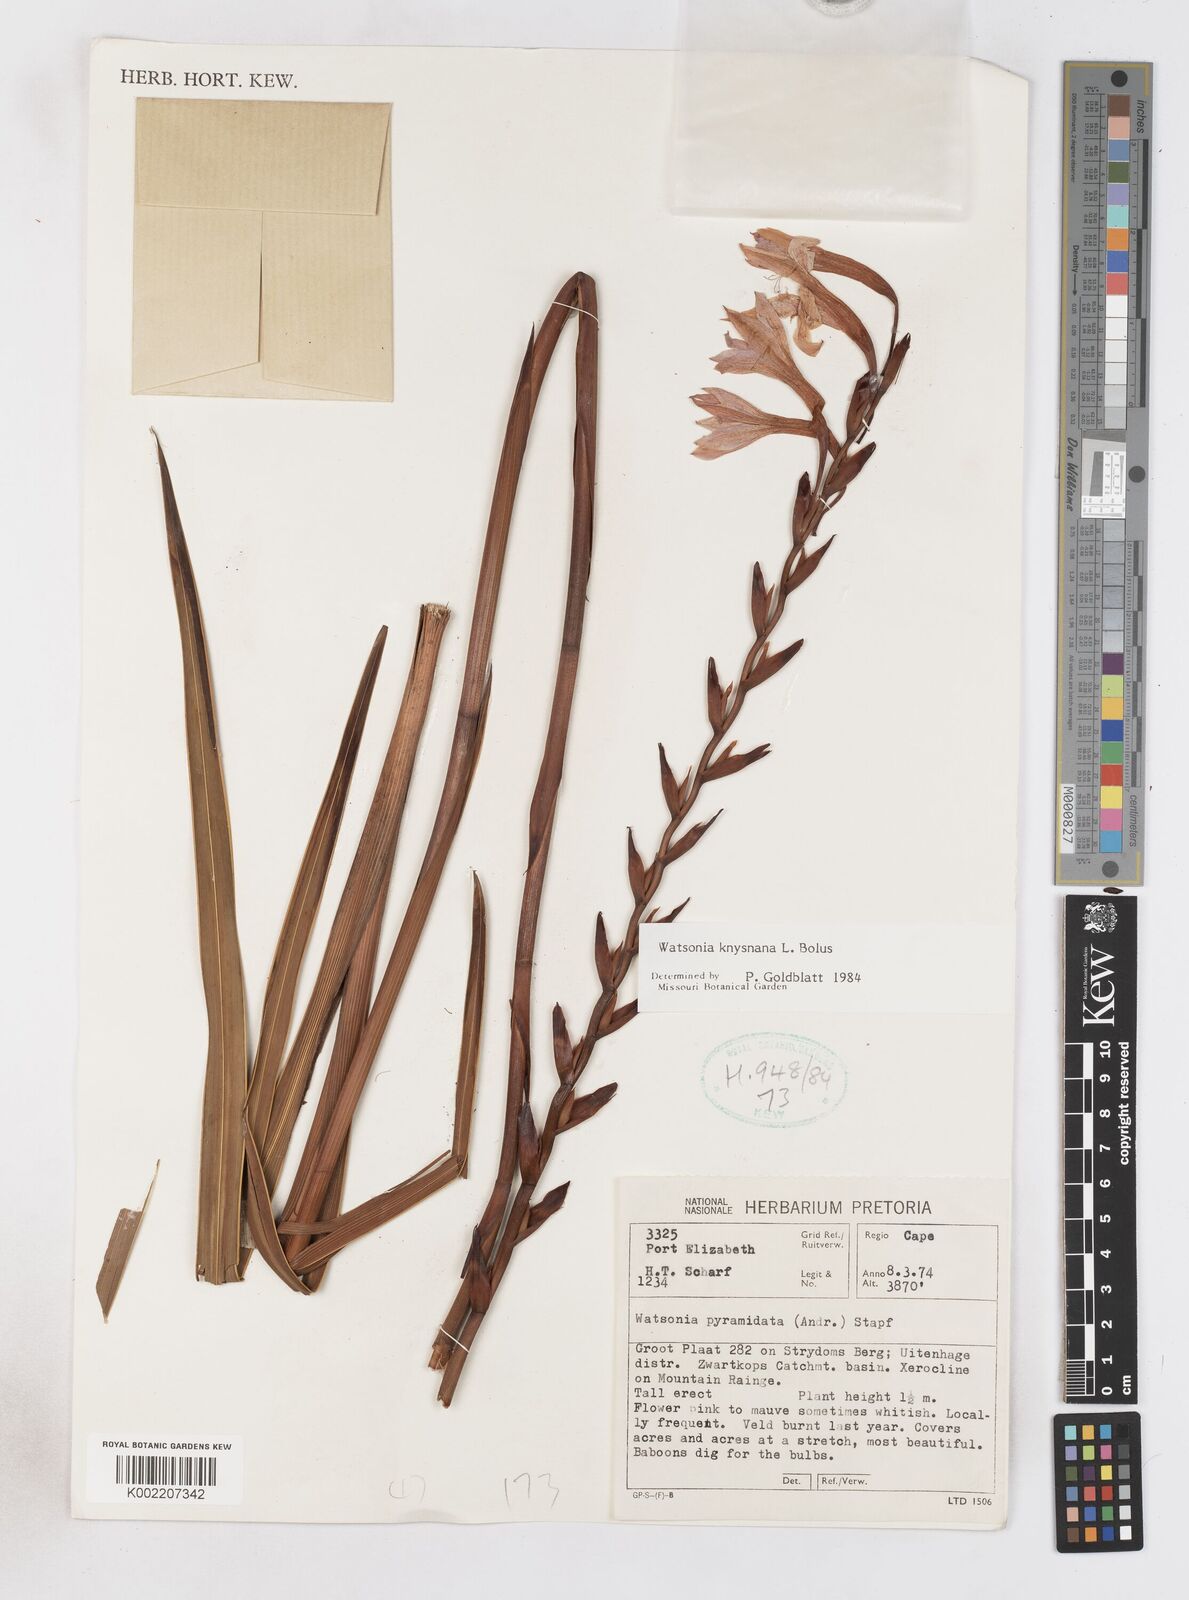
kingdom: Plantae
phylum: Tracheophyta
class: Liliopsida
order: Asparagales
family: Iridaceae
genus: Watsonia
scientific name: Watsonia knysnana
